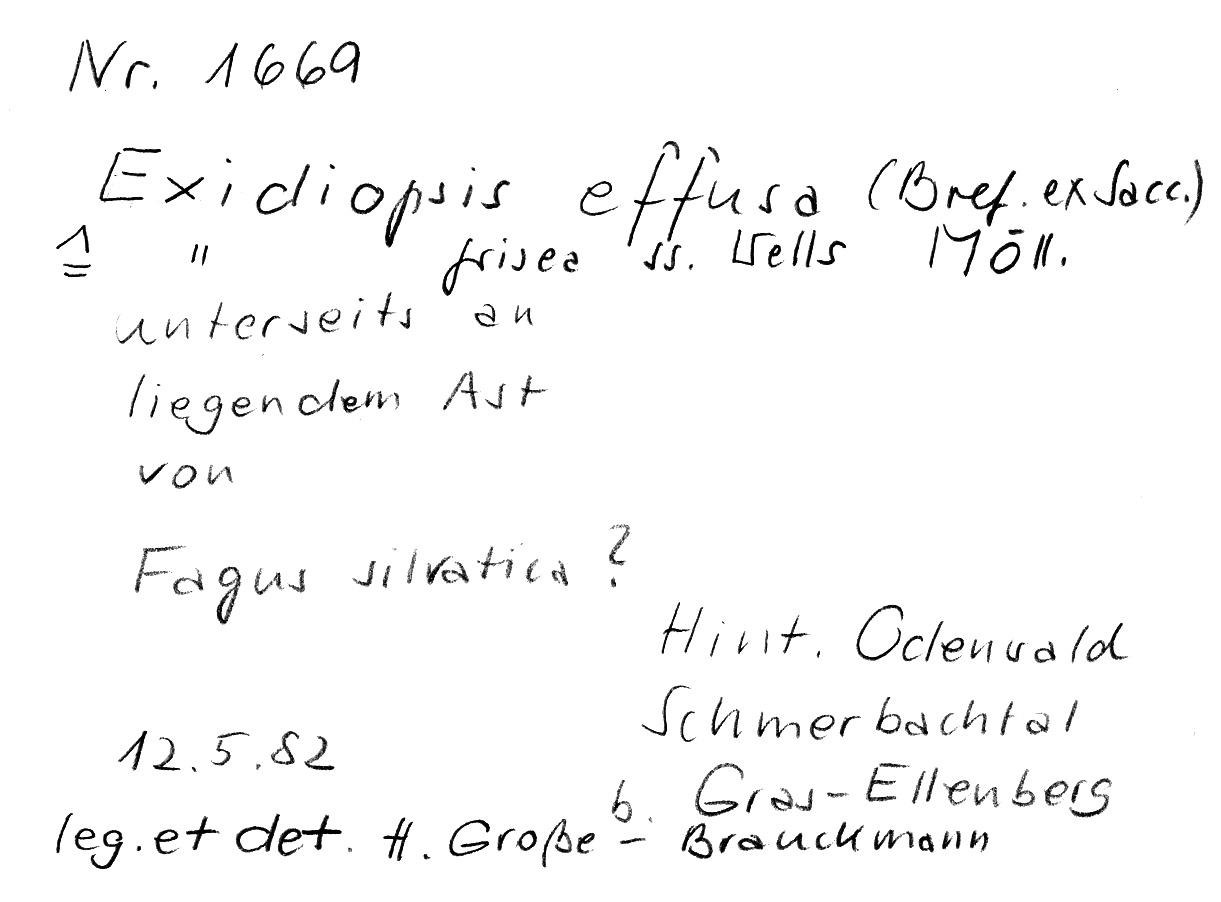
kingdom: Fungi
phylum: Basidiomycota
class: Agaricomycetes
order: Auriculariales
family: Auriculariaceae
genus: Exidiopsis
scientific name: Exidiopsis effusa
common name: Hair ice crust
